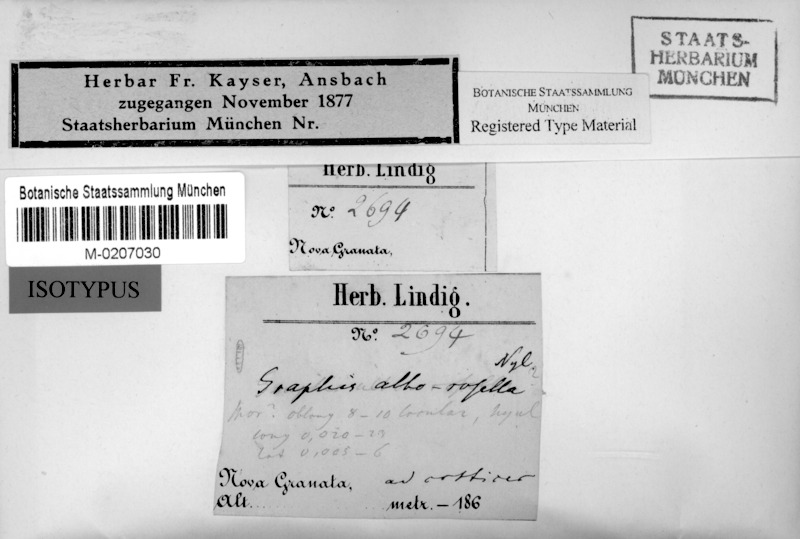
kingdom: Fungi
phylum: Ascomycota
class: Lecanoromycetes
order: Ostropales
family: Graphidaceae
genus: Chapsa
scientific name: Chapsa alborosella
